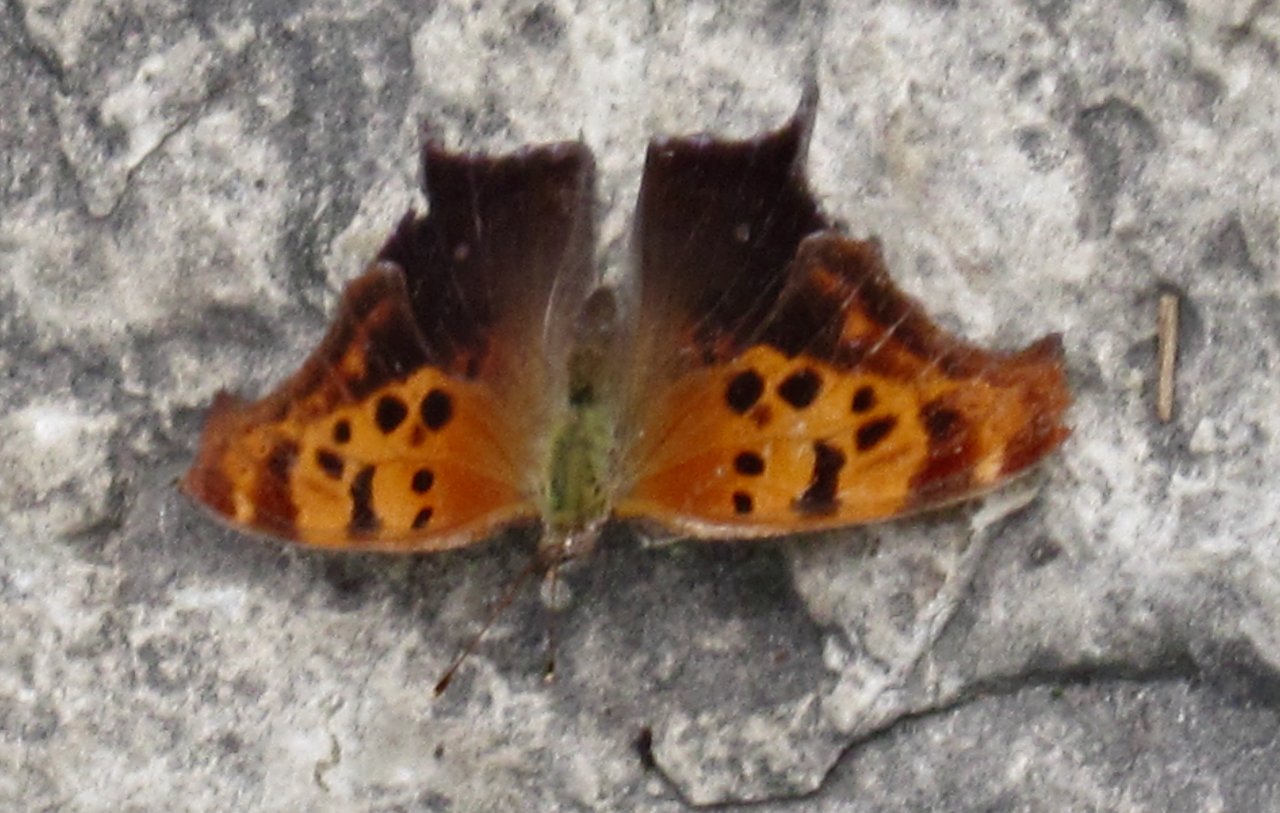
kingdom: Animalia
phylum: Arthropoda
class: Insecta
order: Lepidoptera
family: Nymphalidae
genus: Polygonia
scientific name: Polygonia interrogationis
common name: Question Mark
